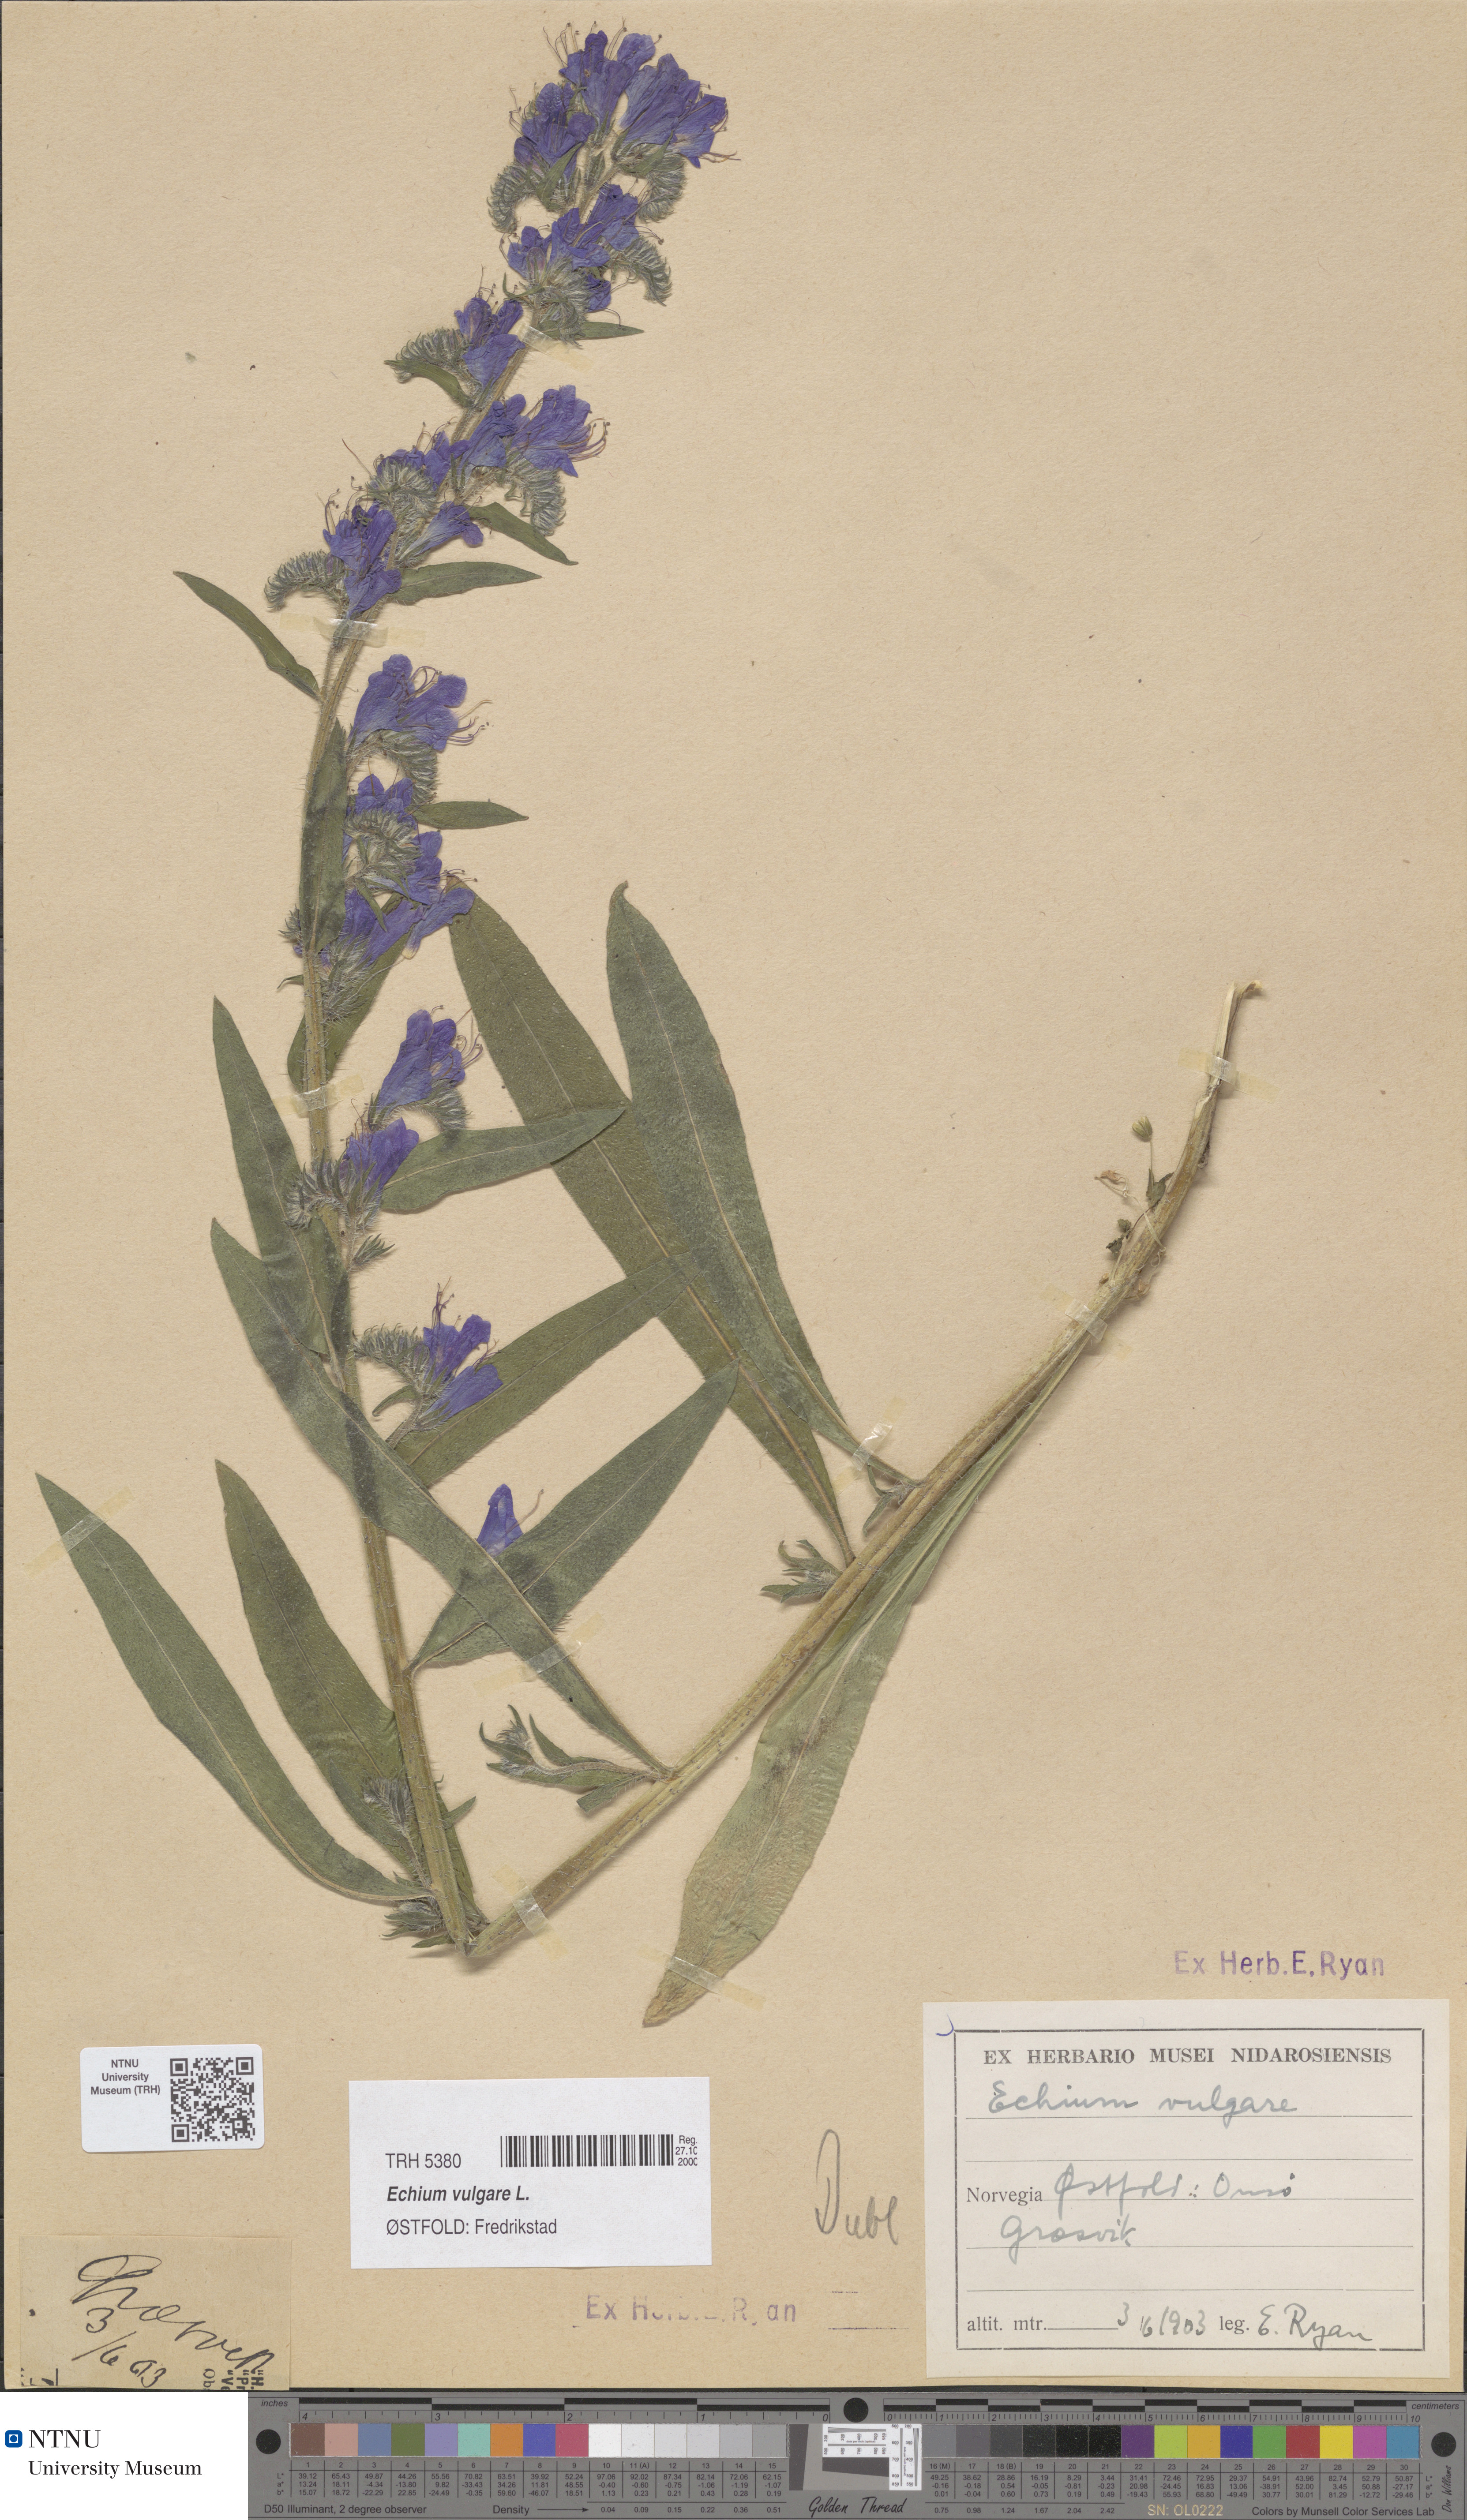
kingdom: Plantae
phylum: Tracheophyta
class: Magnoliopsida
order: Boraginales
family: Boraginaceae
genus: Echium
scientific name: Echium vulgare
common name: Common viper's bugloss
